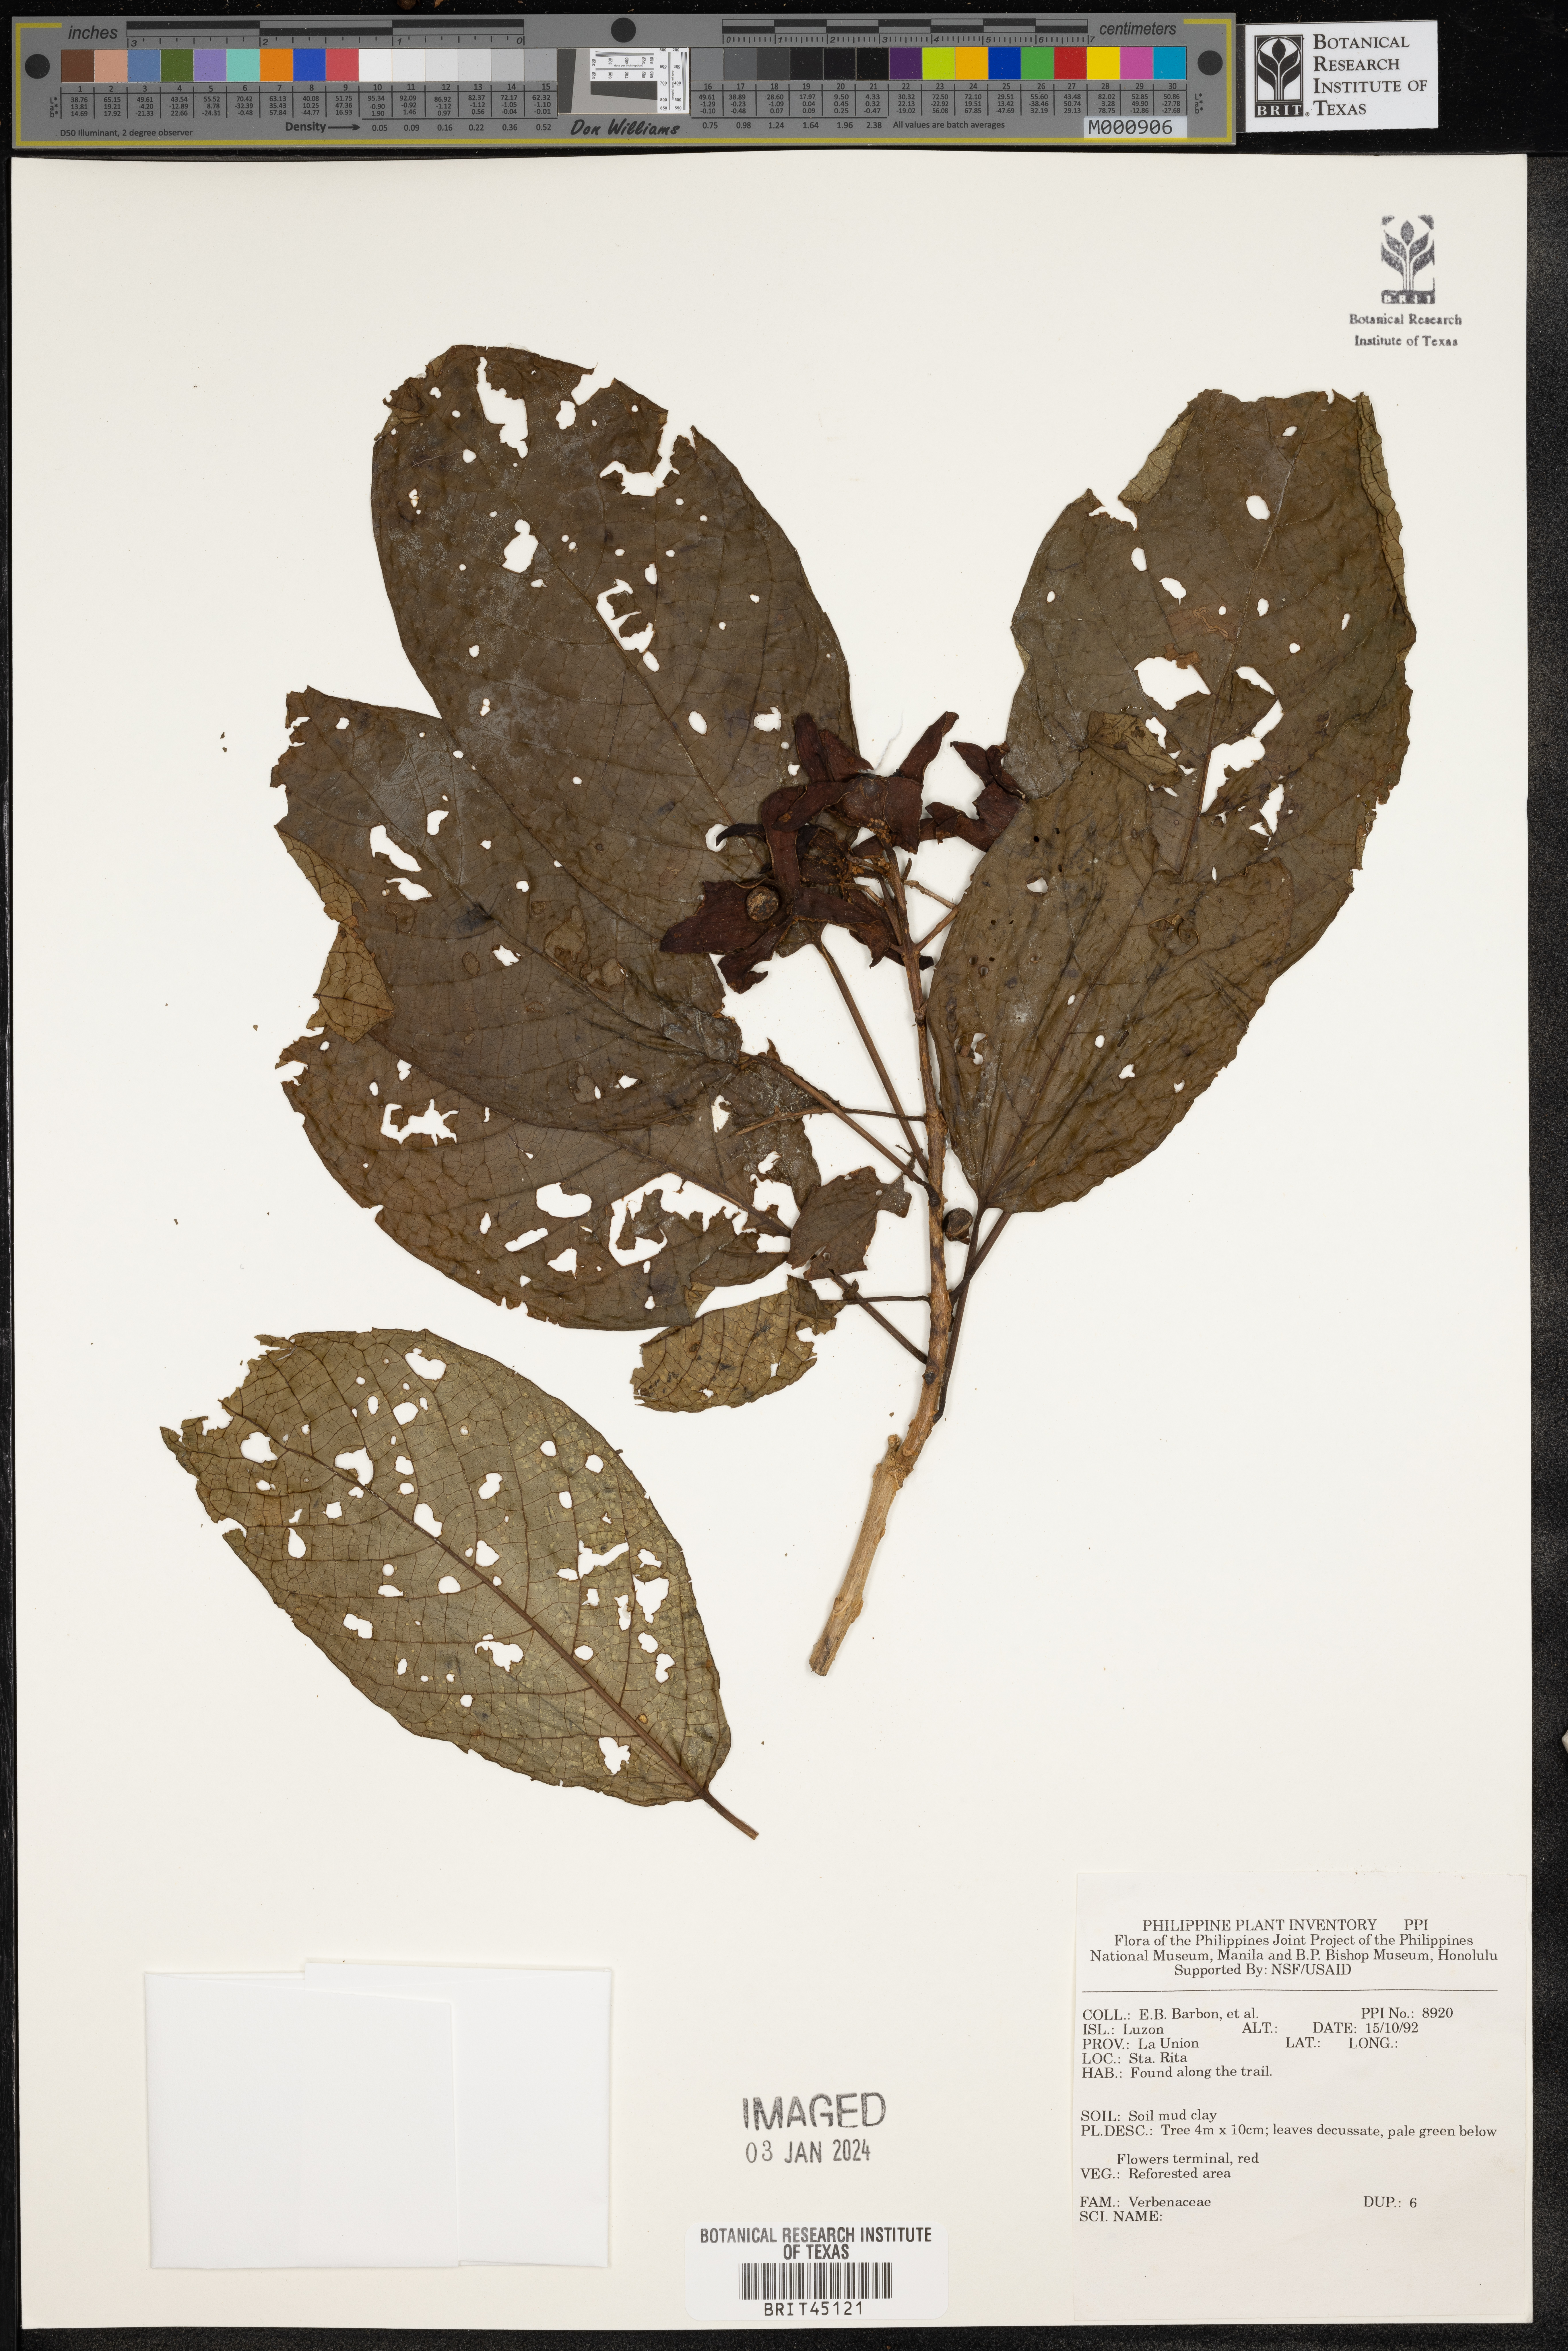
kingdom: Plantae
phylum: Tracheophyta
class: Magnoliopsida
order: Lamiales
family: Verbenaceae
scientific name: Verbenaceae
